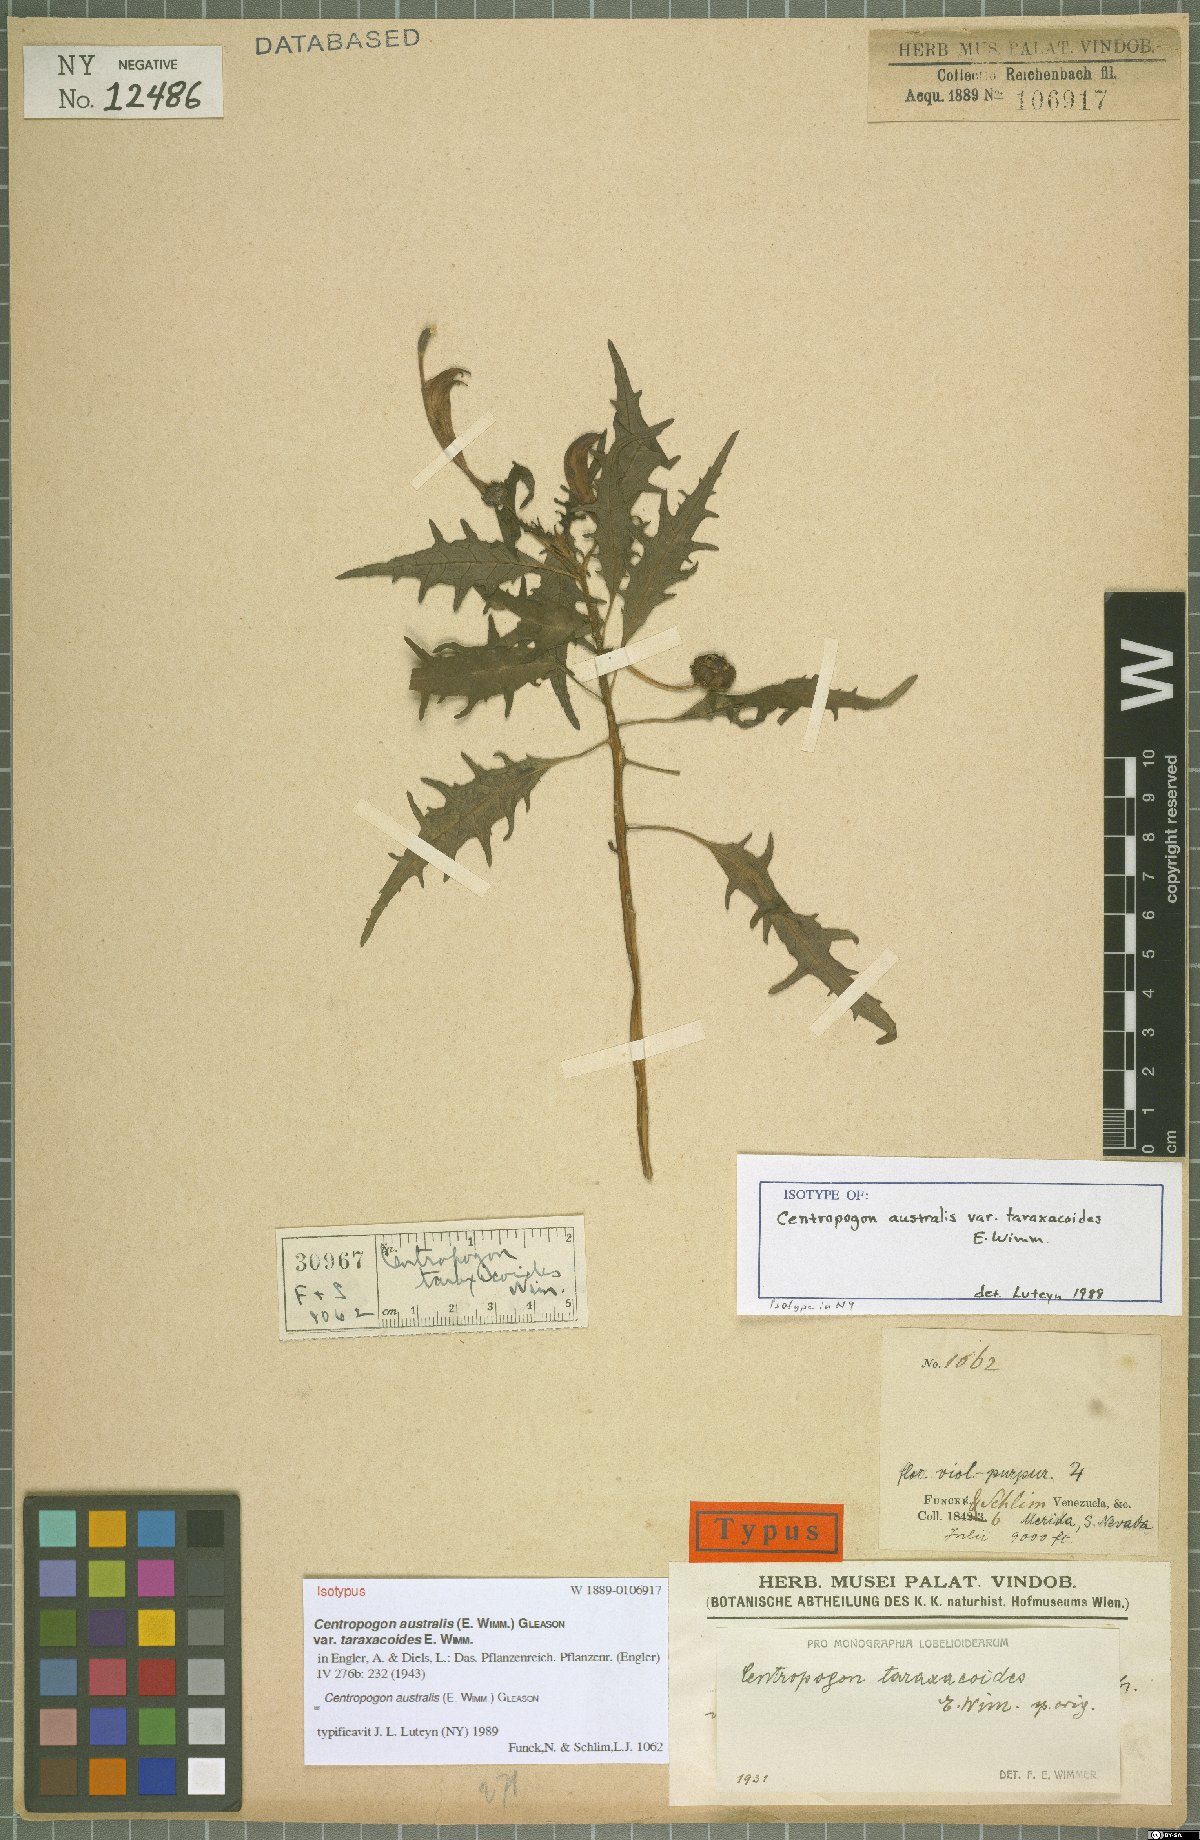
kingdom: Plantae
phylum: Tracheophyta
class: Magnoliopsida
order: Asterales
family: Campanulaceae
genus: Centropogon
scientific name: Centropogon australis
